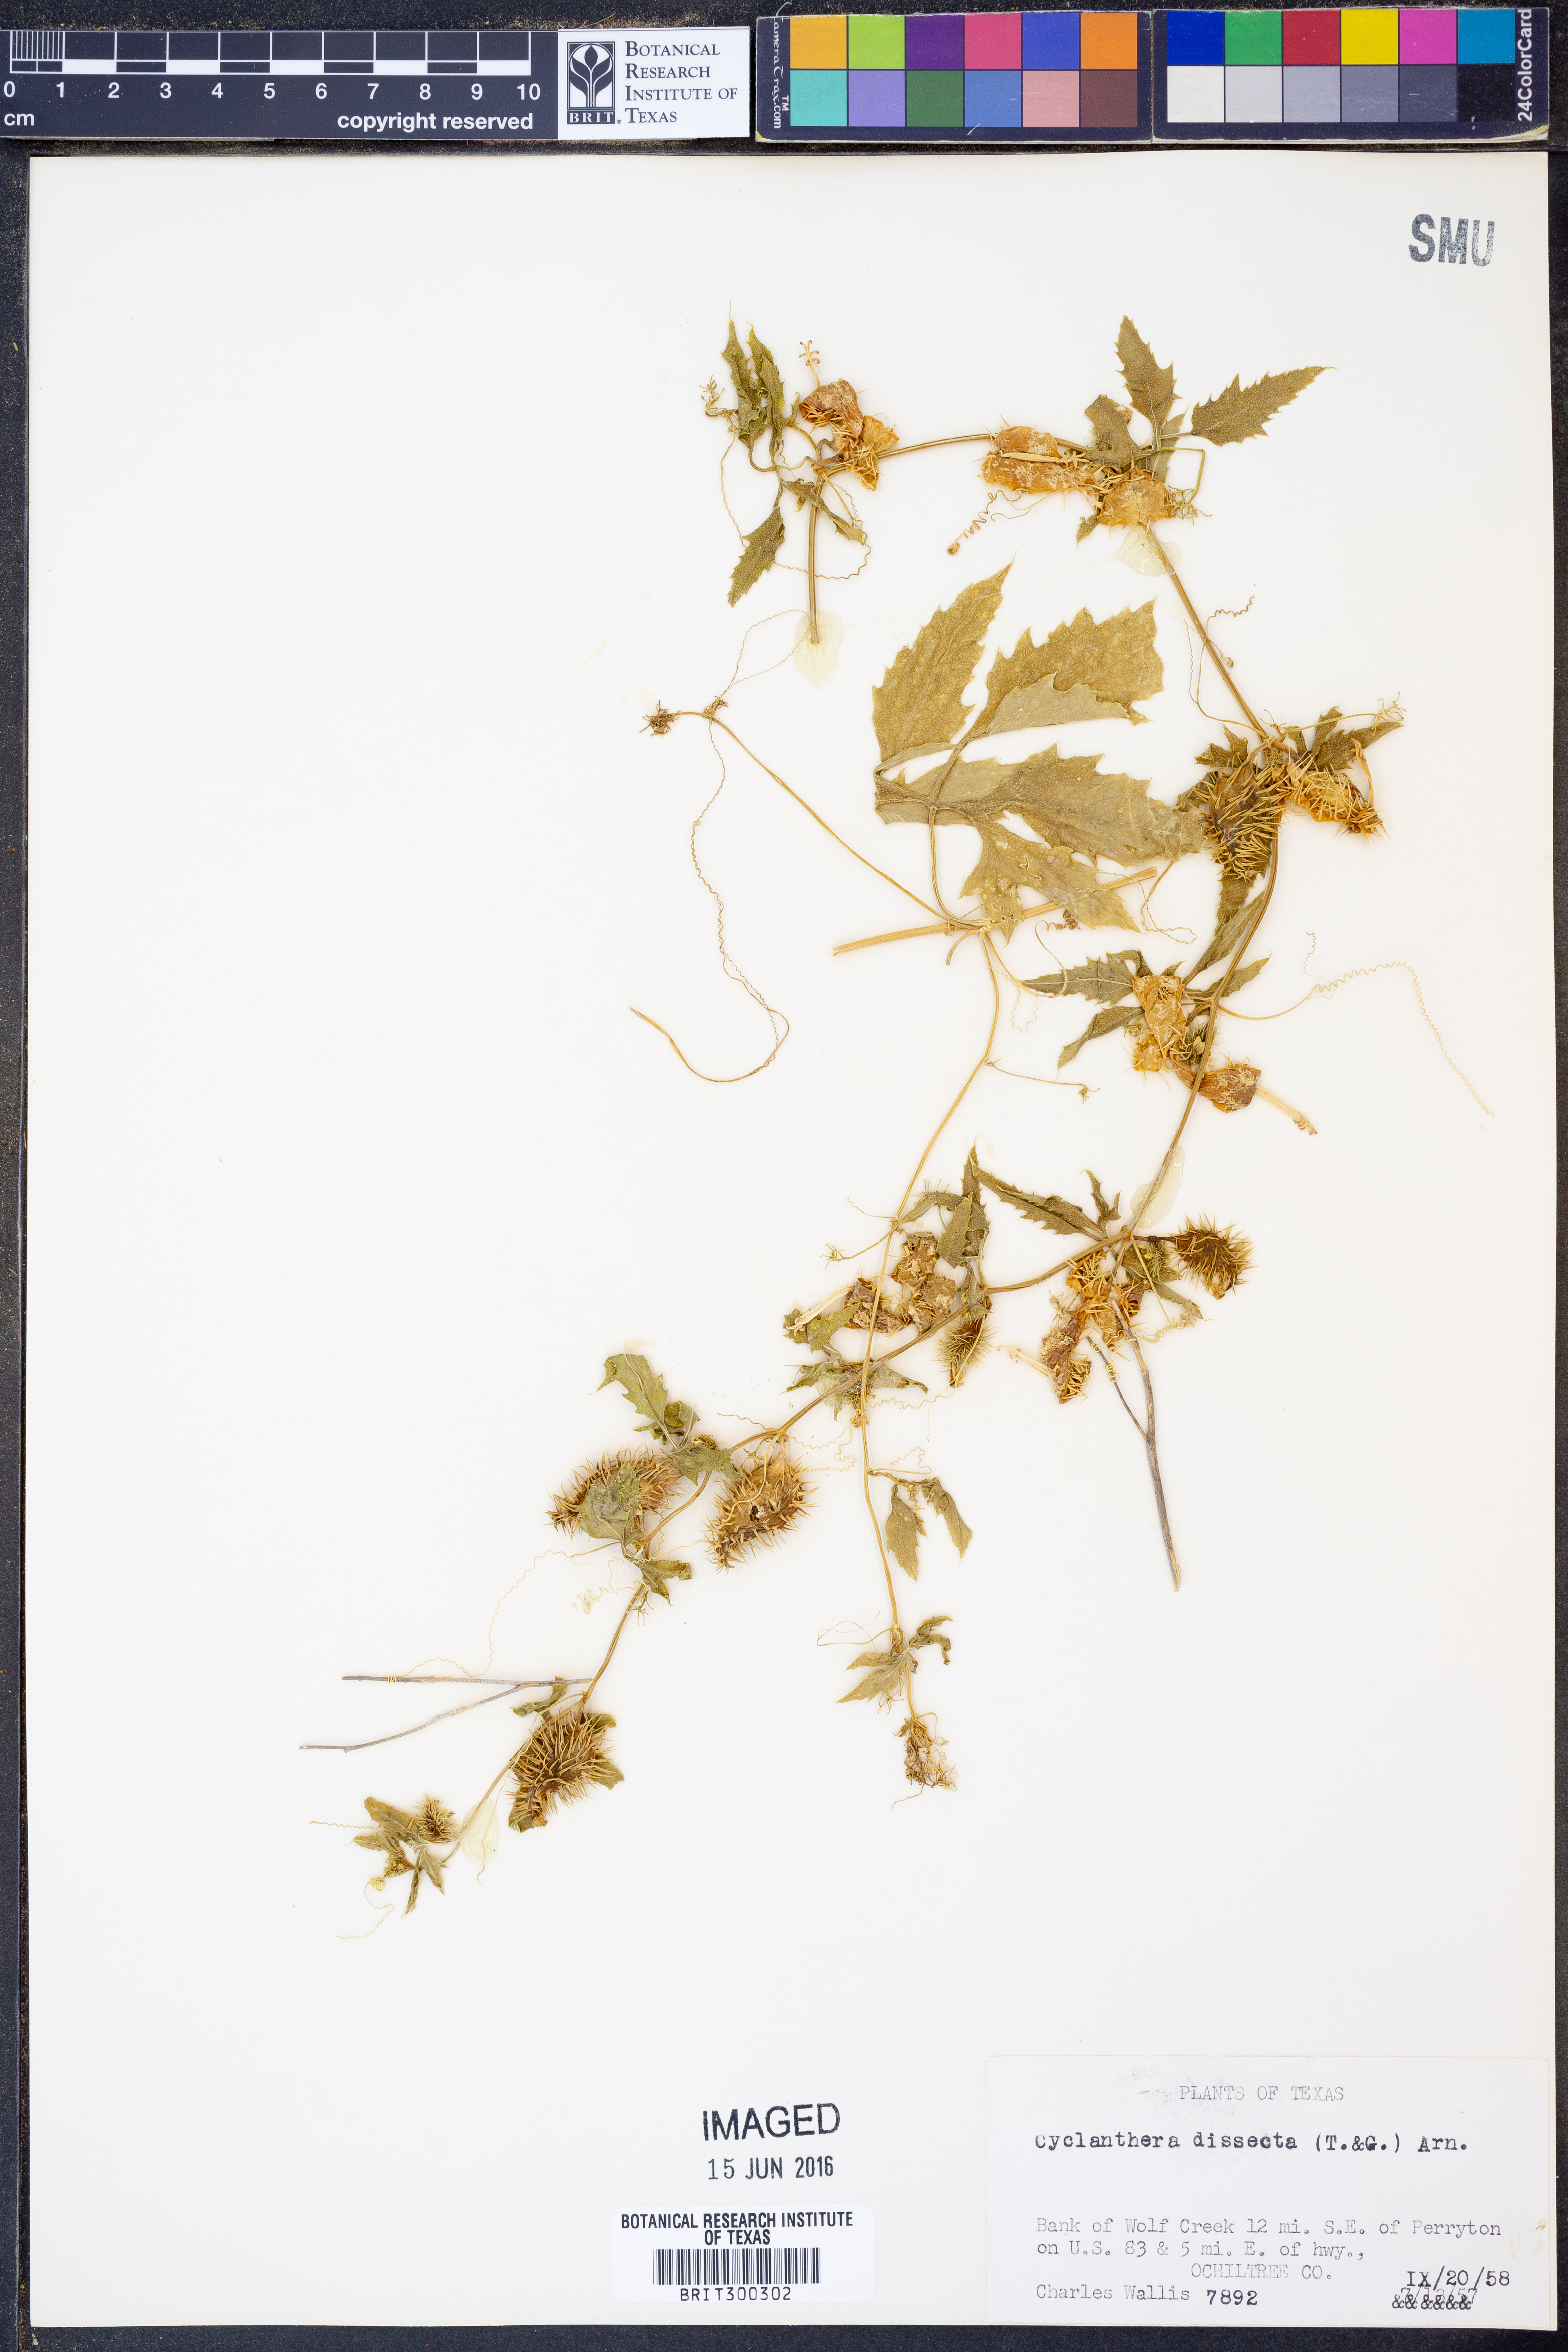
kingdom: Plantae
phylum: Tracheophyta
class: Magnoliopsida
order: Cucurbitales
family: Cucurbitaceae
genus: Cyclanthera
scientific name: Cyclanthera dissecta
